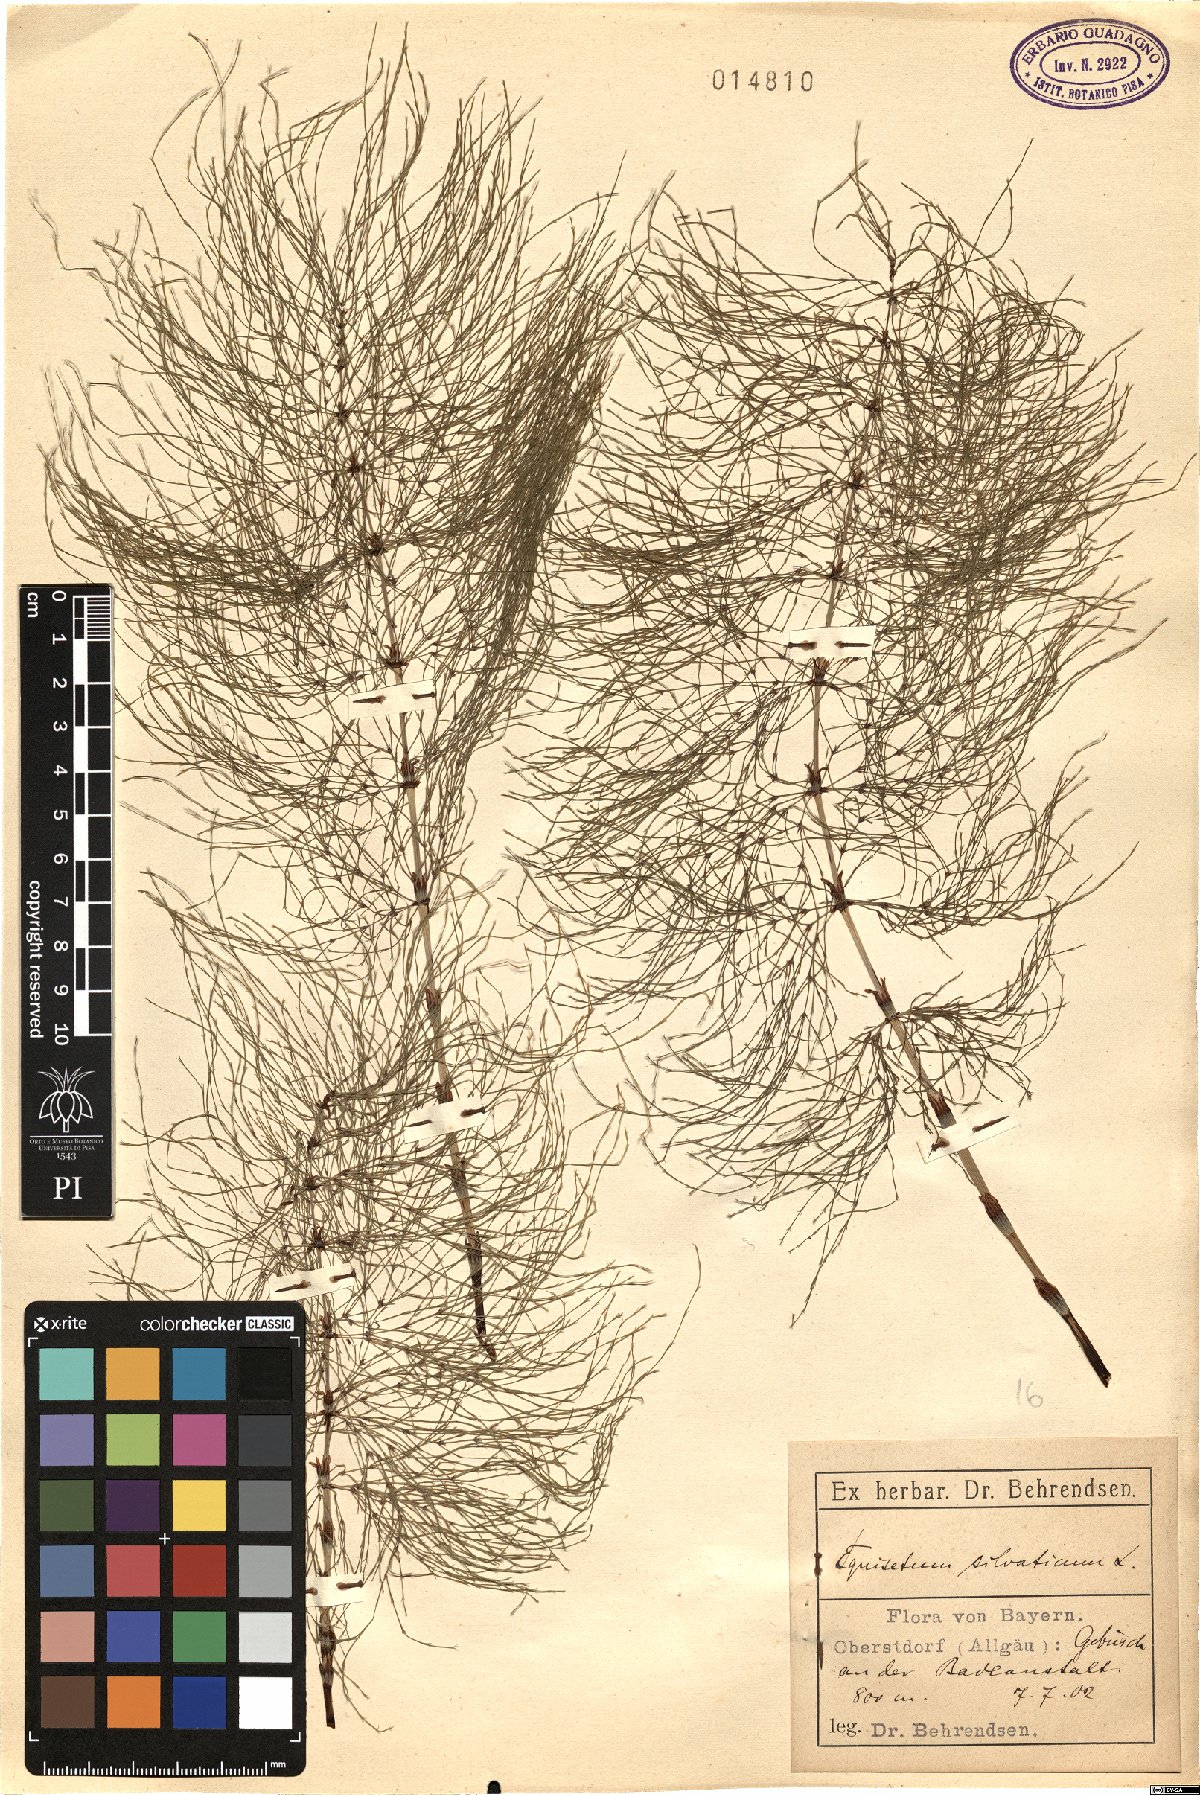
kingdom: Plantae
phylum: Tracheophyta
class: Polypodiopsida
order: Equisetales
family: Equisetaceae
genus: Equisetum
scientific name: Equisetum sylvaticum
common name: Wood horsetail
